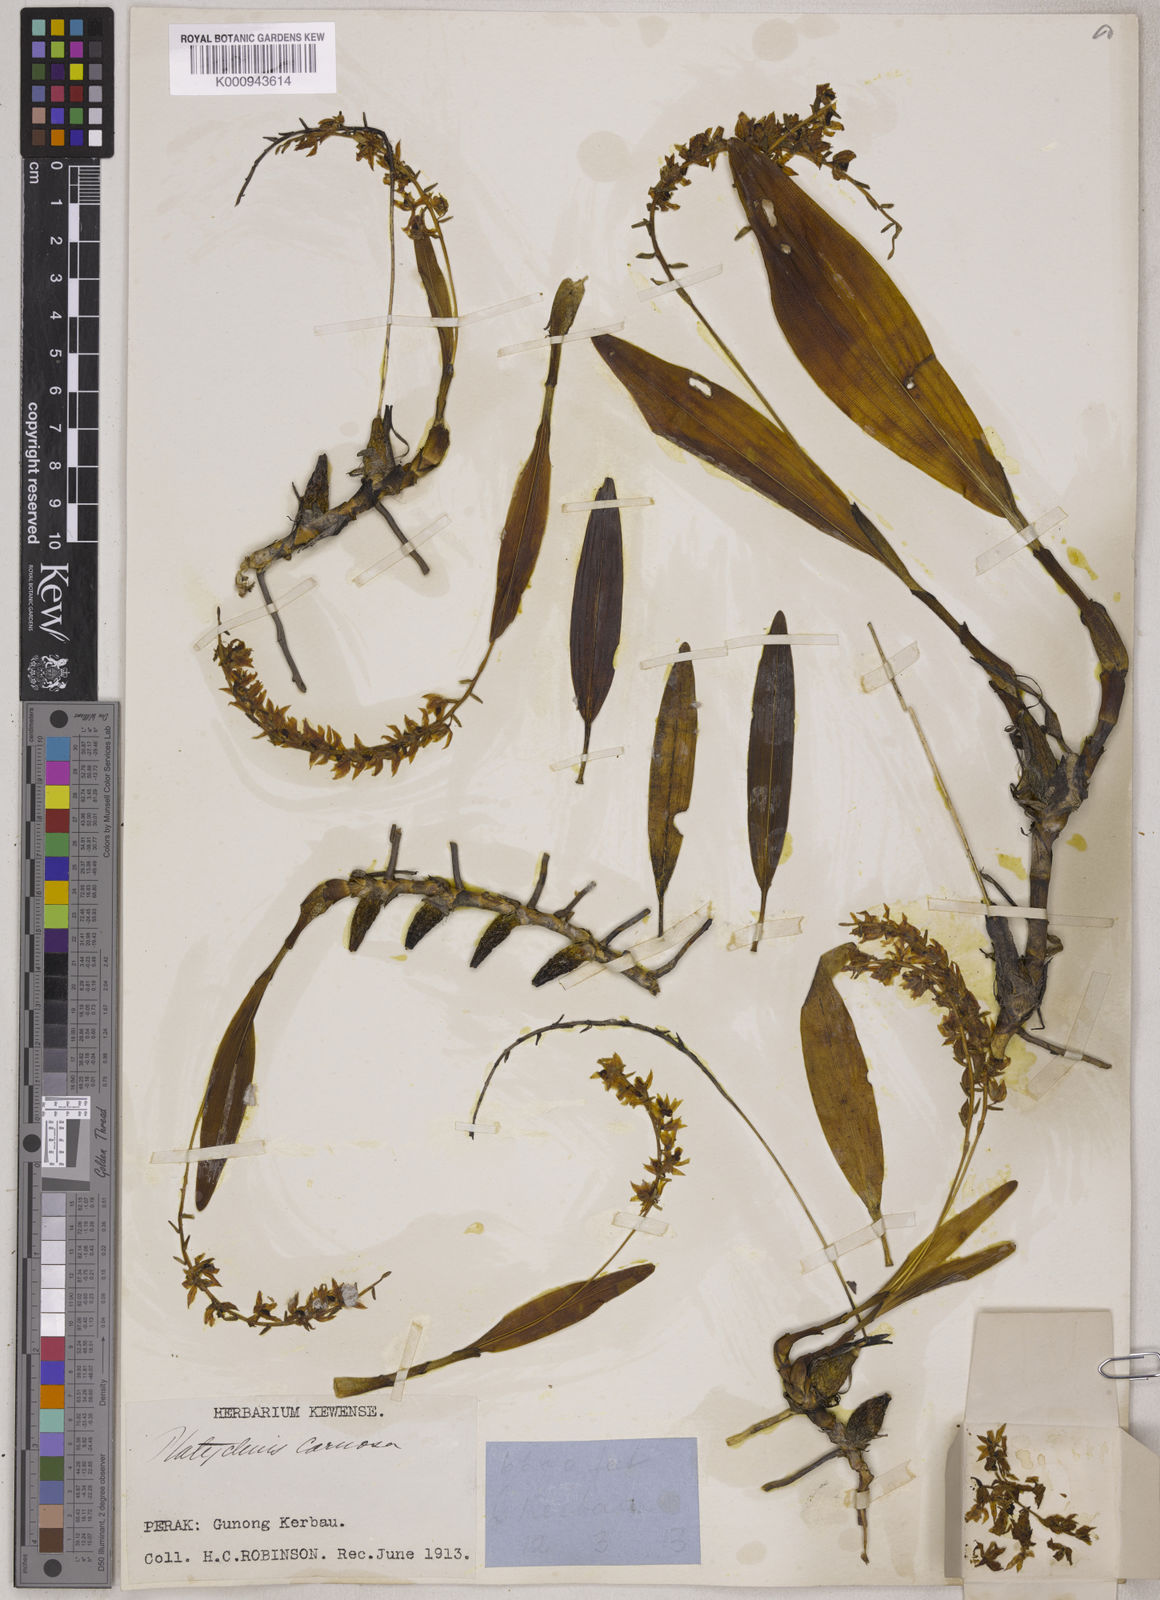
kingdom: Plantae
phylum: Tracheophyta
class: Liliopsida
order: Asparagales
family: Orchidaceae
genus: Coelogyne
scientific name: Coelogyne carnosa
